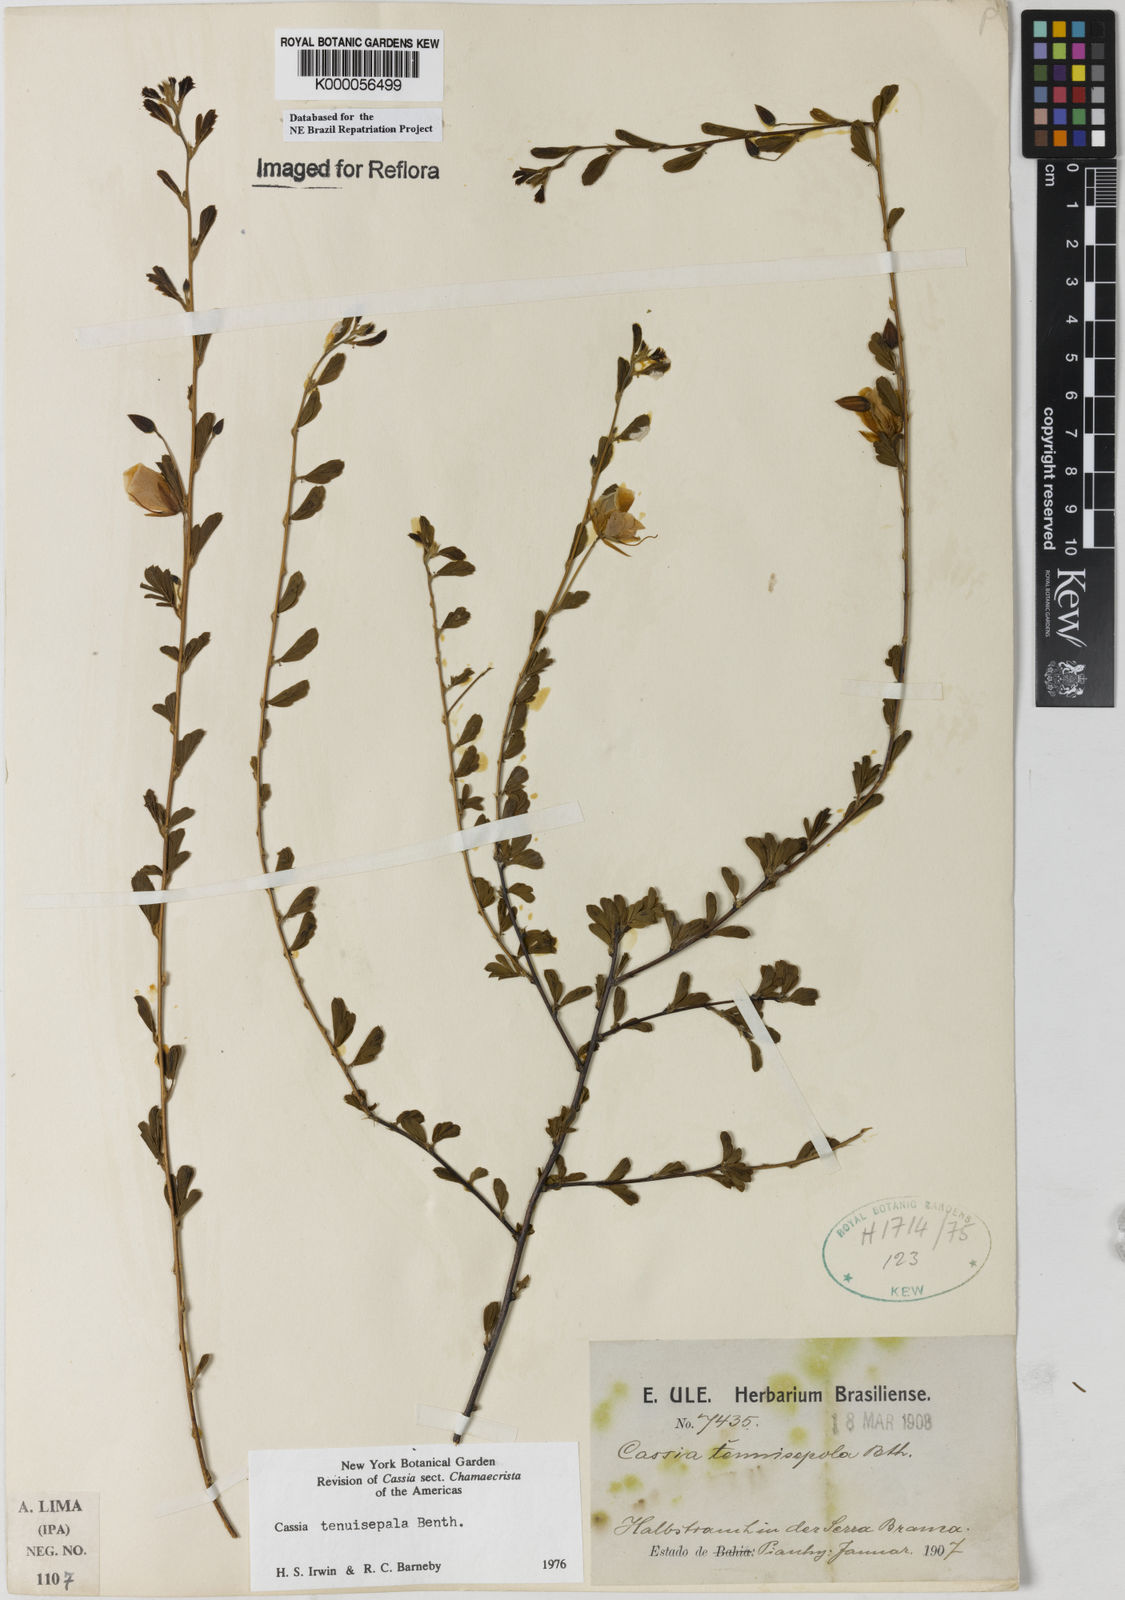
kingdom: Plantae
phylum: Tracheophyta
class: Magnoliopsida
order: Fabales
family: Fabaceae
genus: Chamaecrista
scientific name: Chamaecrista tenuisepala
